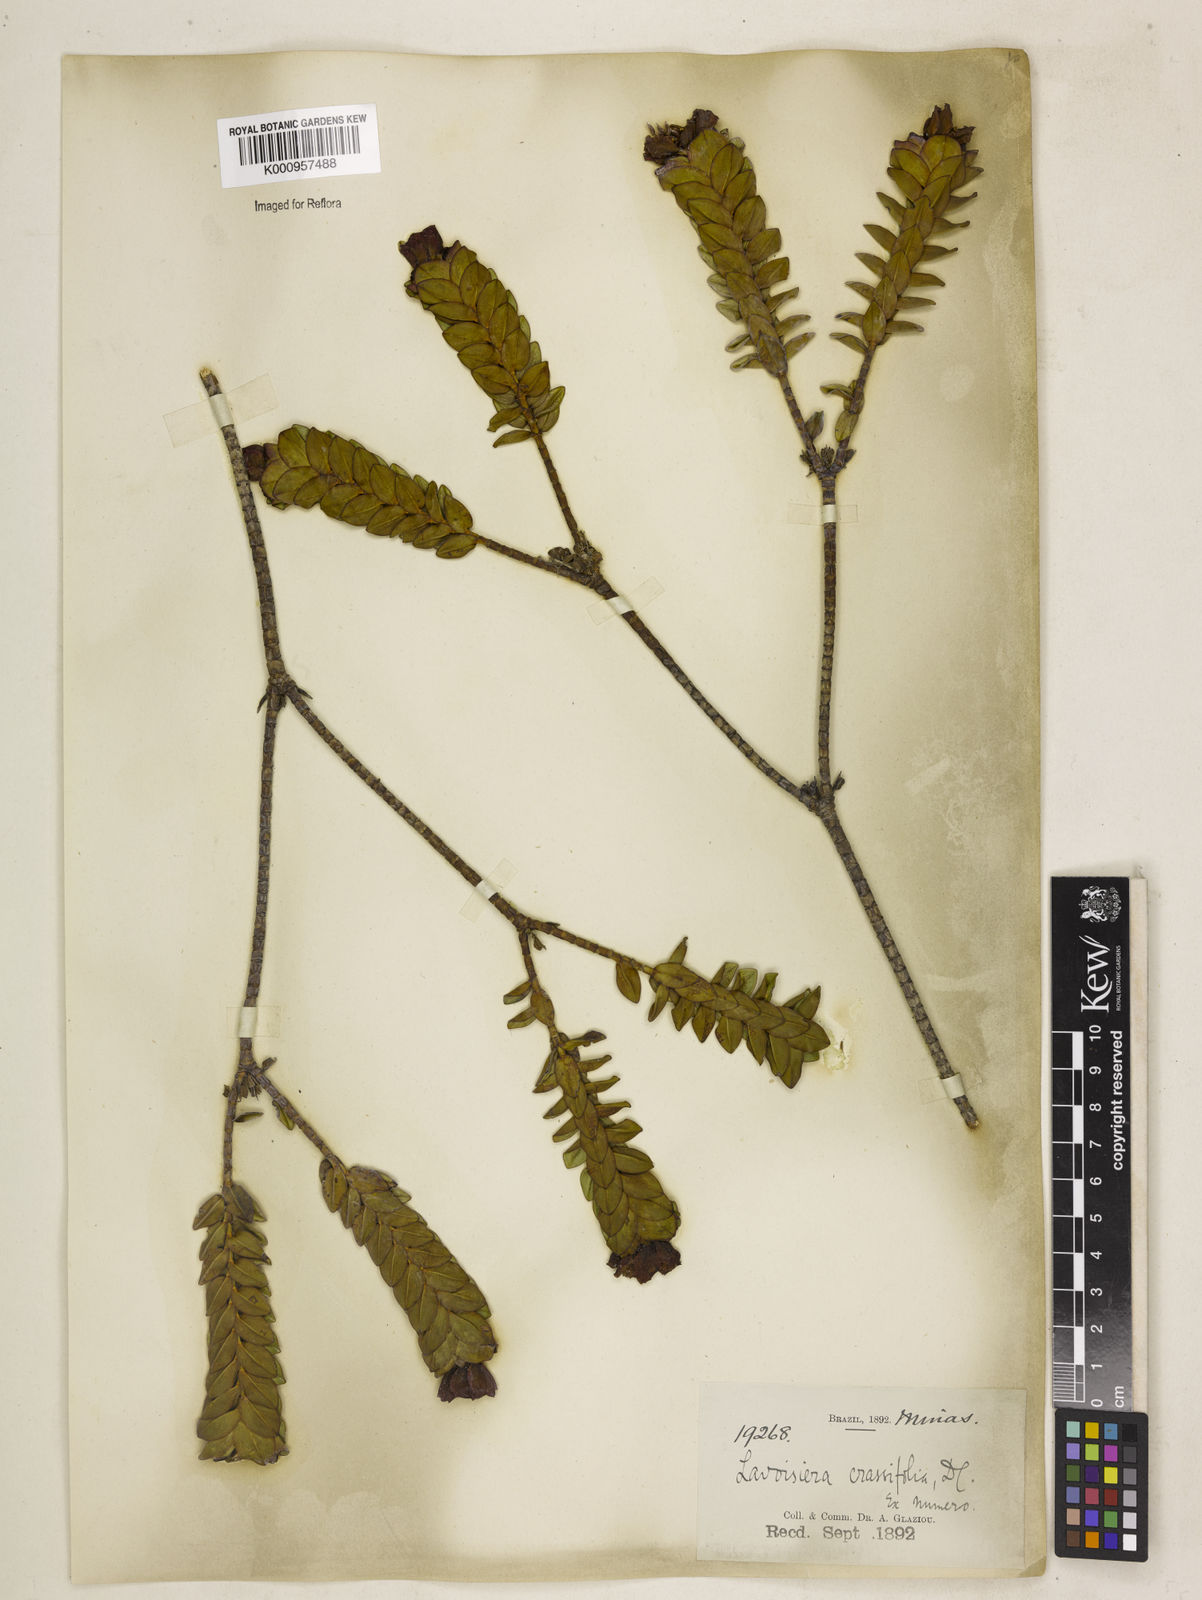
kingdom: Plantae
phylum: Tracheophyta
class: Magnoliopsida
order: Myrtales
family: Melastomataceae
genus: Microlicia
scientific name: Microlicia crassifolia
